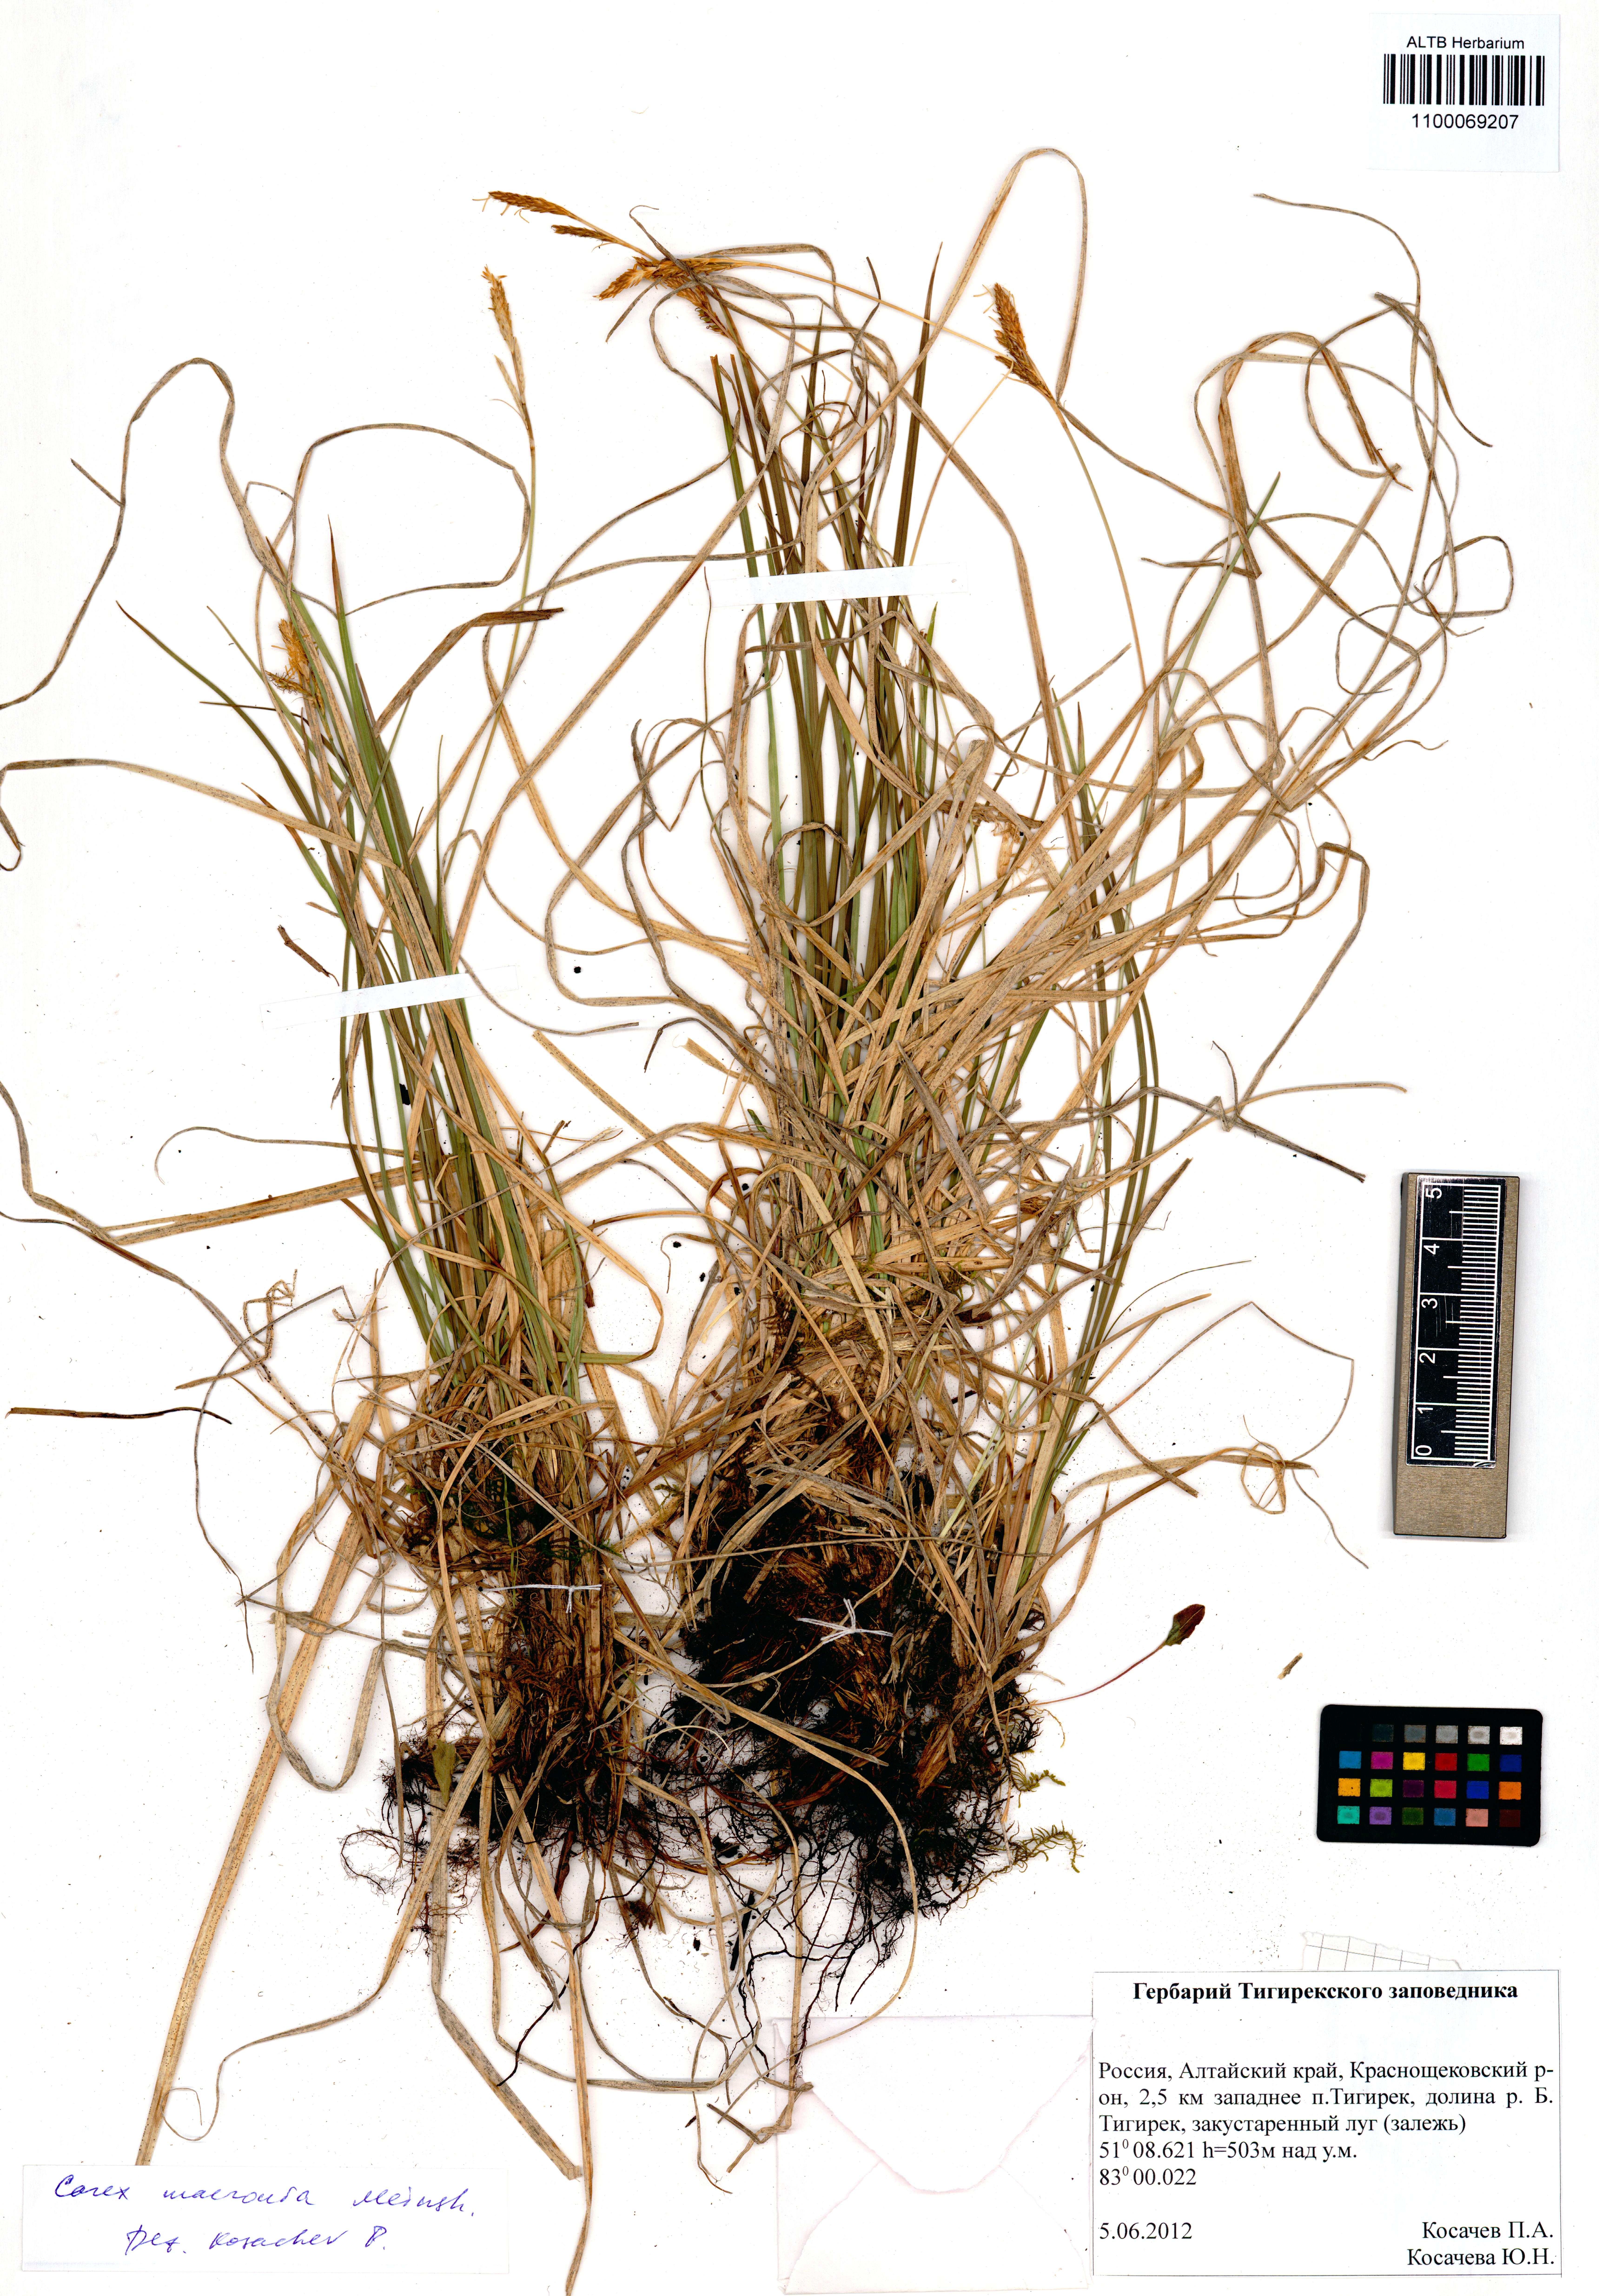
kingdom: Plantae
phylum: Tracheophyta
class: Liliopsida
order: Poales
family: Cyperaceae
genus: Carex
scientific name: Carex pediformis
